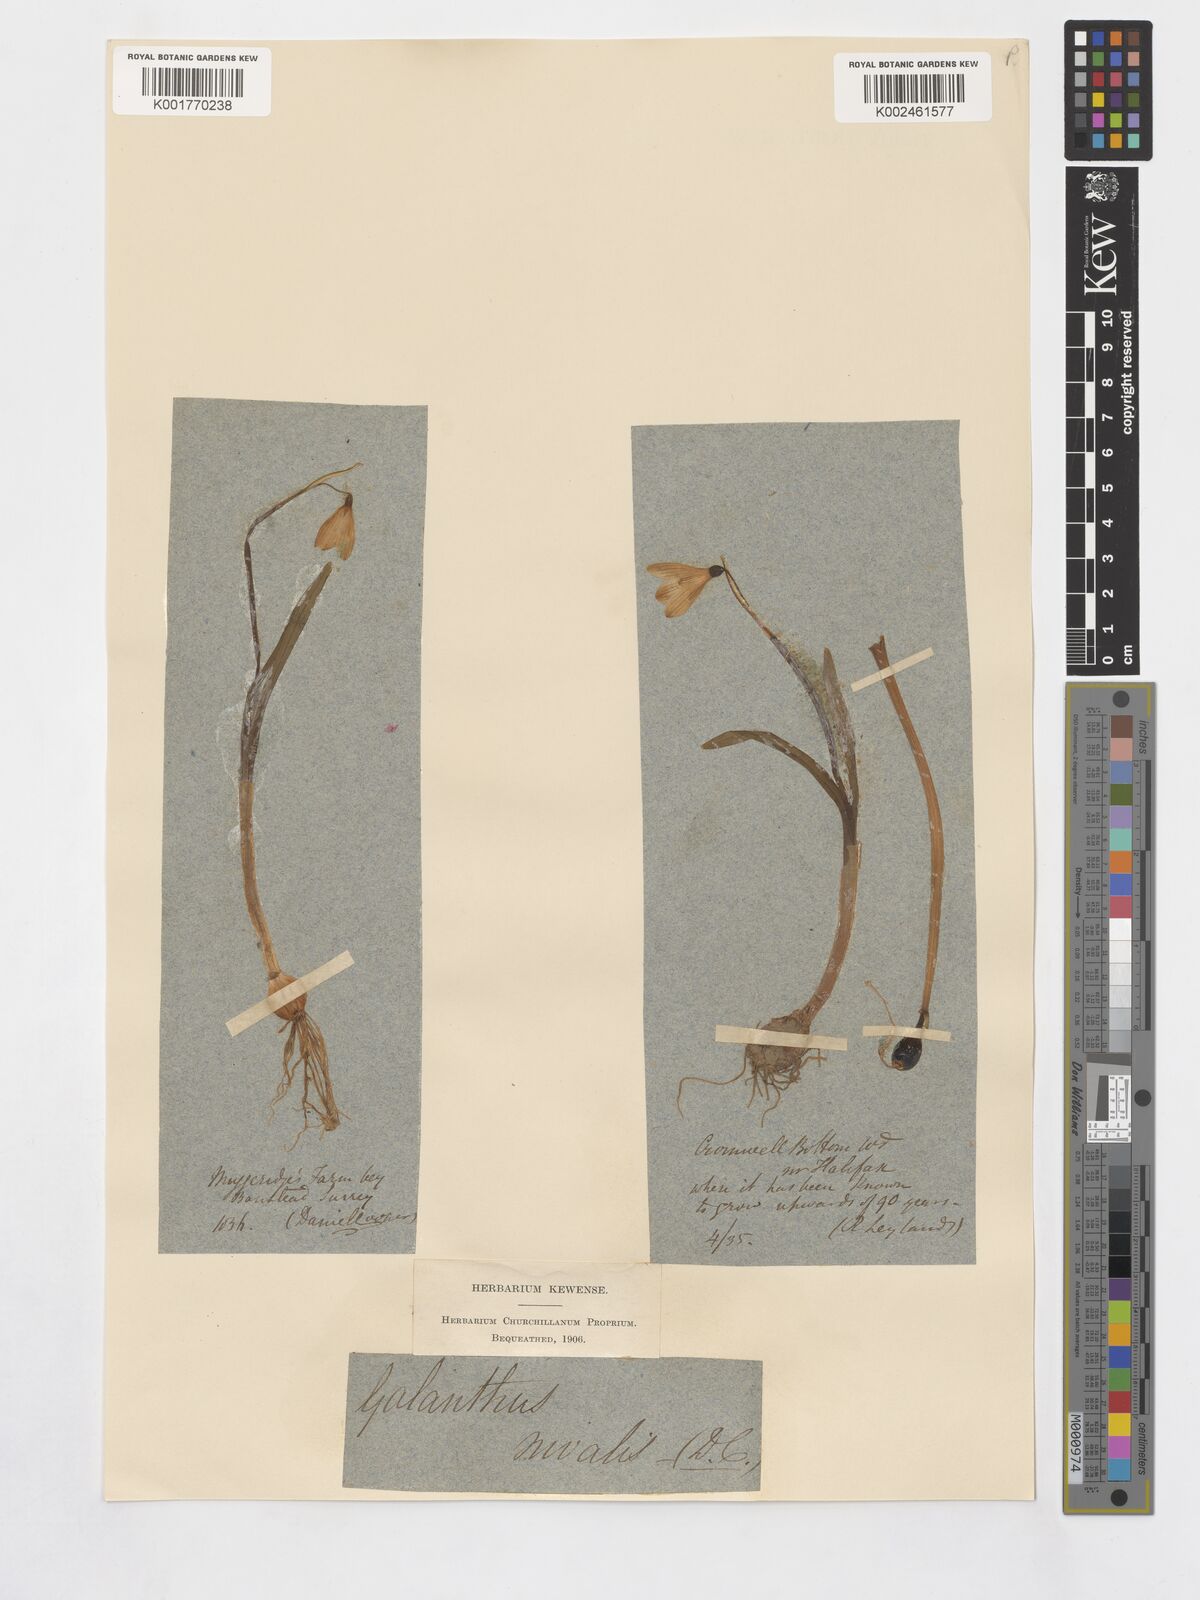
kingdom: Plantae
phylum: Tracheophyta
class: Liliopsida
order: Asparagales
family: Amaryllidaceae
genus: Galanthus
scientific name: Galanthus nivalis
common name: Snowdrop
